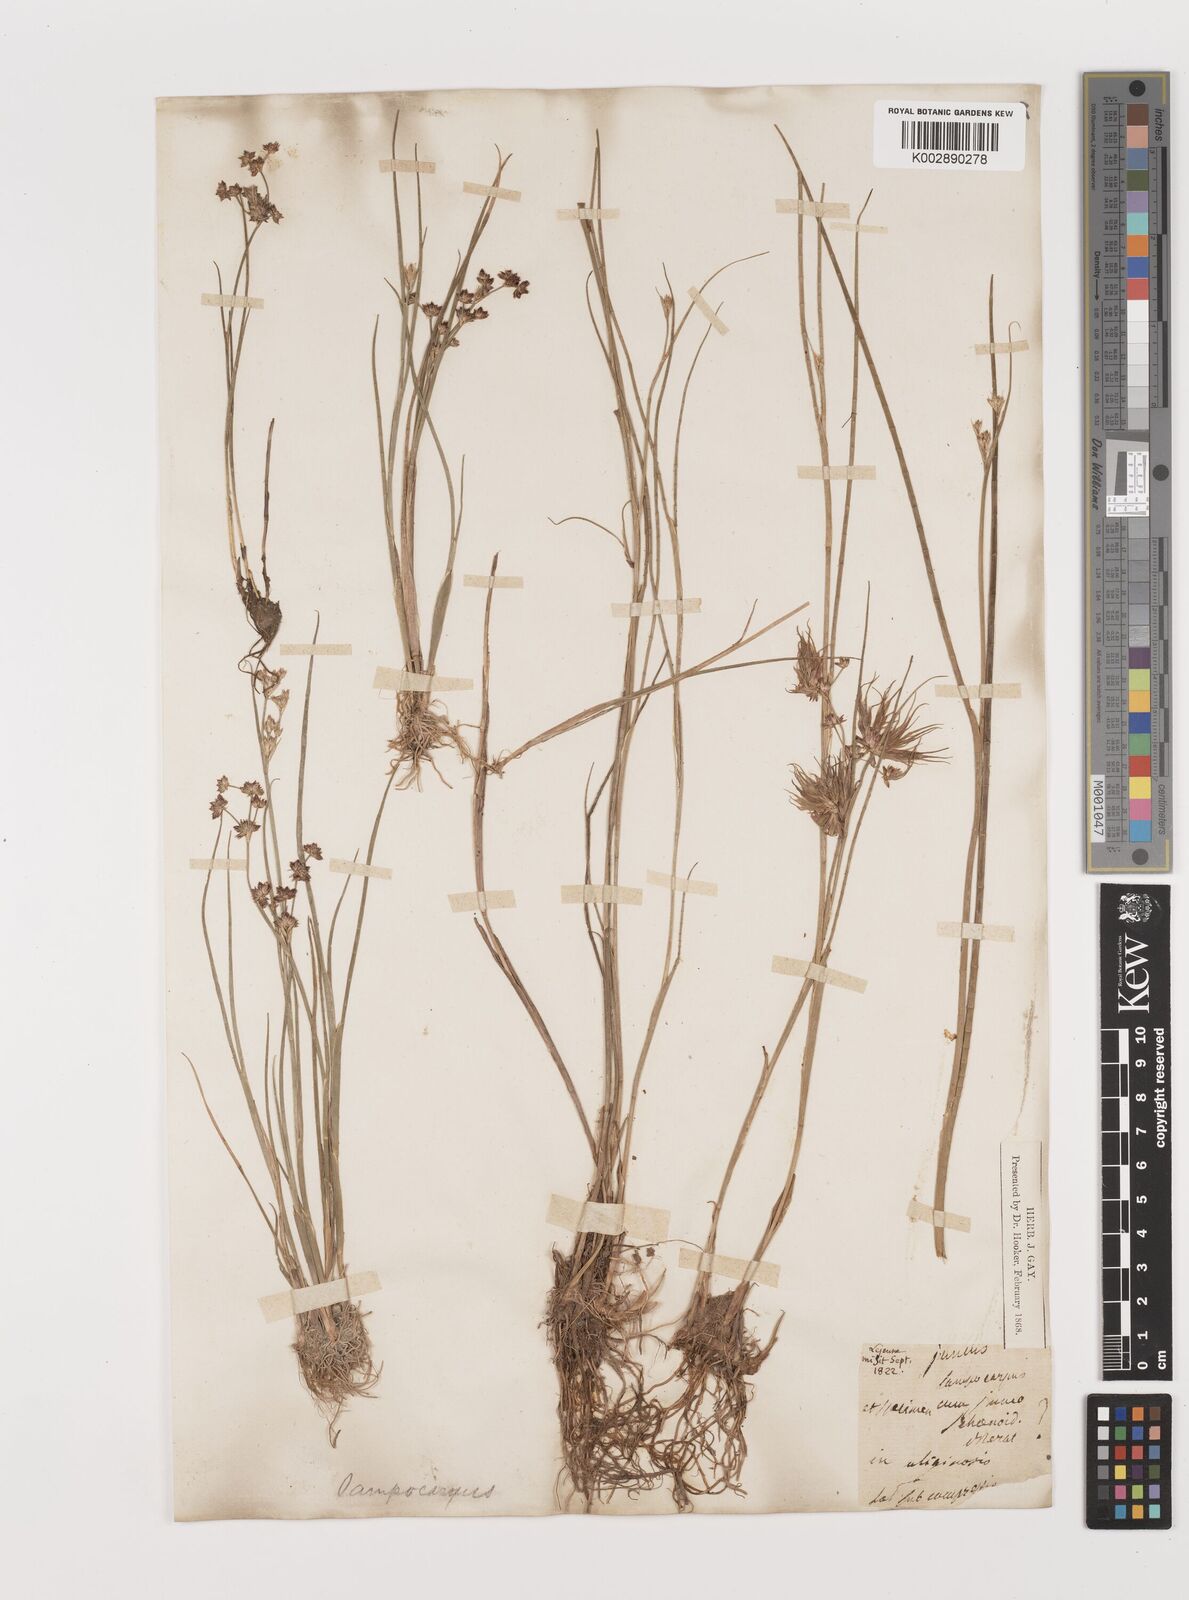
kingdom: Plantae
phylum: Tracheophyta
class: Liliopsida
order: Poales
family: Juncaceae
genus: Juncus
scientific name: Juncus articulatus
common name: Jointed rush
